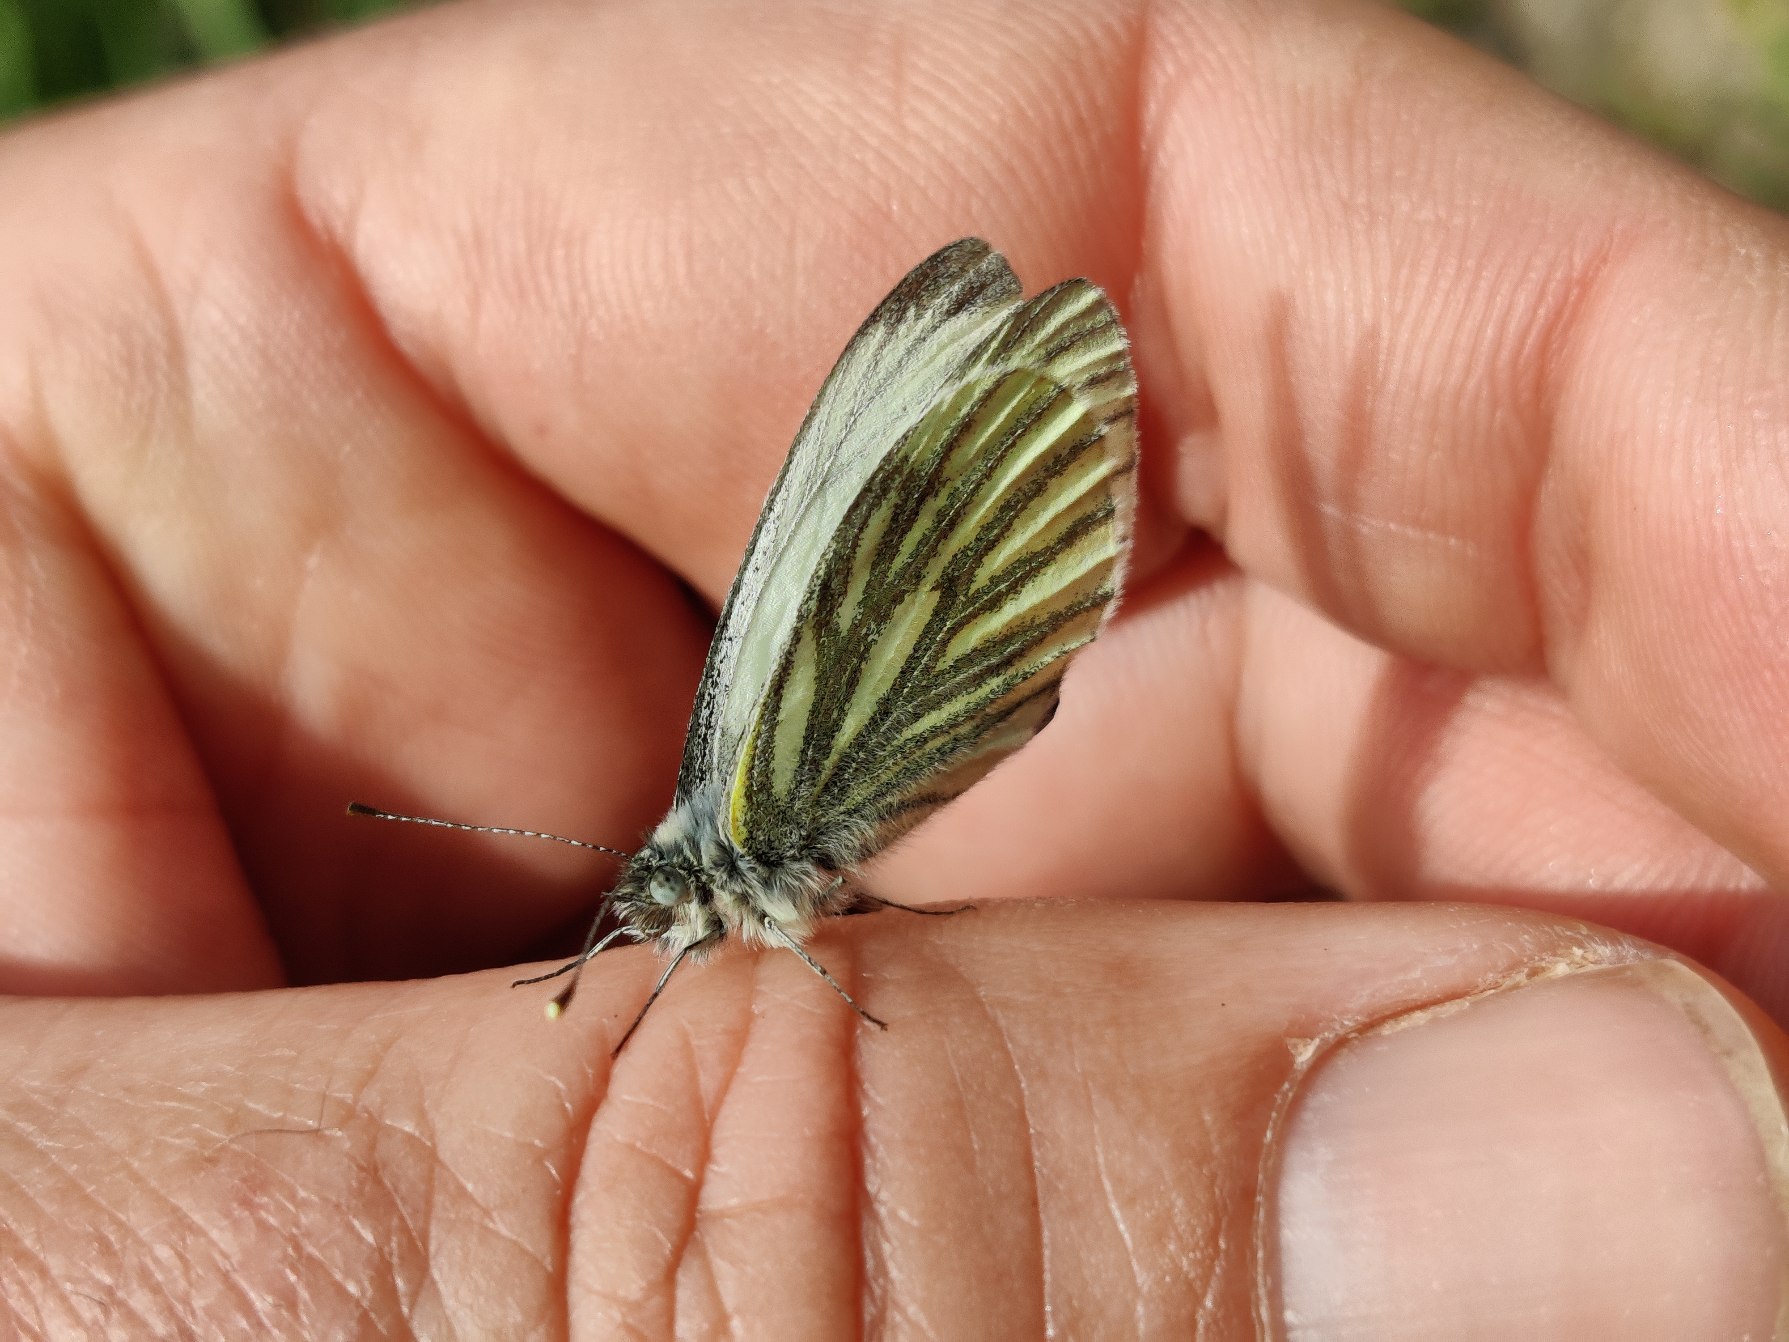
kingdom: Animalia
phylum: Arthropoda
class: Insecta
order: Lepidoptera
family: Pieridae
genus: Pieris
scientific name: Pieris napi
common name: Grønåret kålsommerfugl
